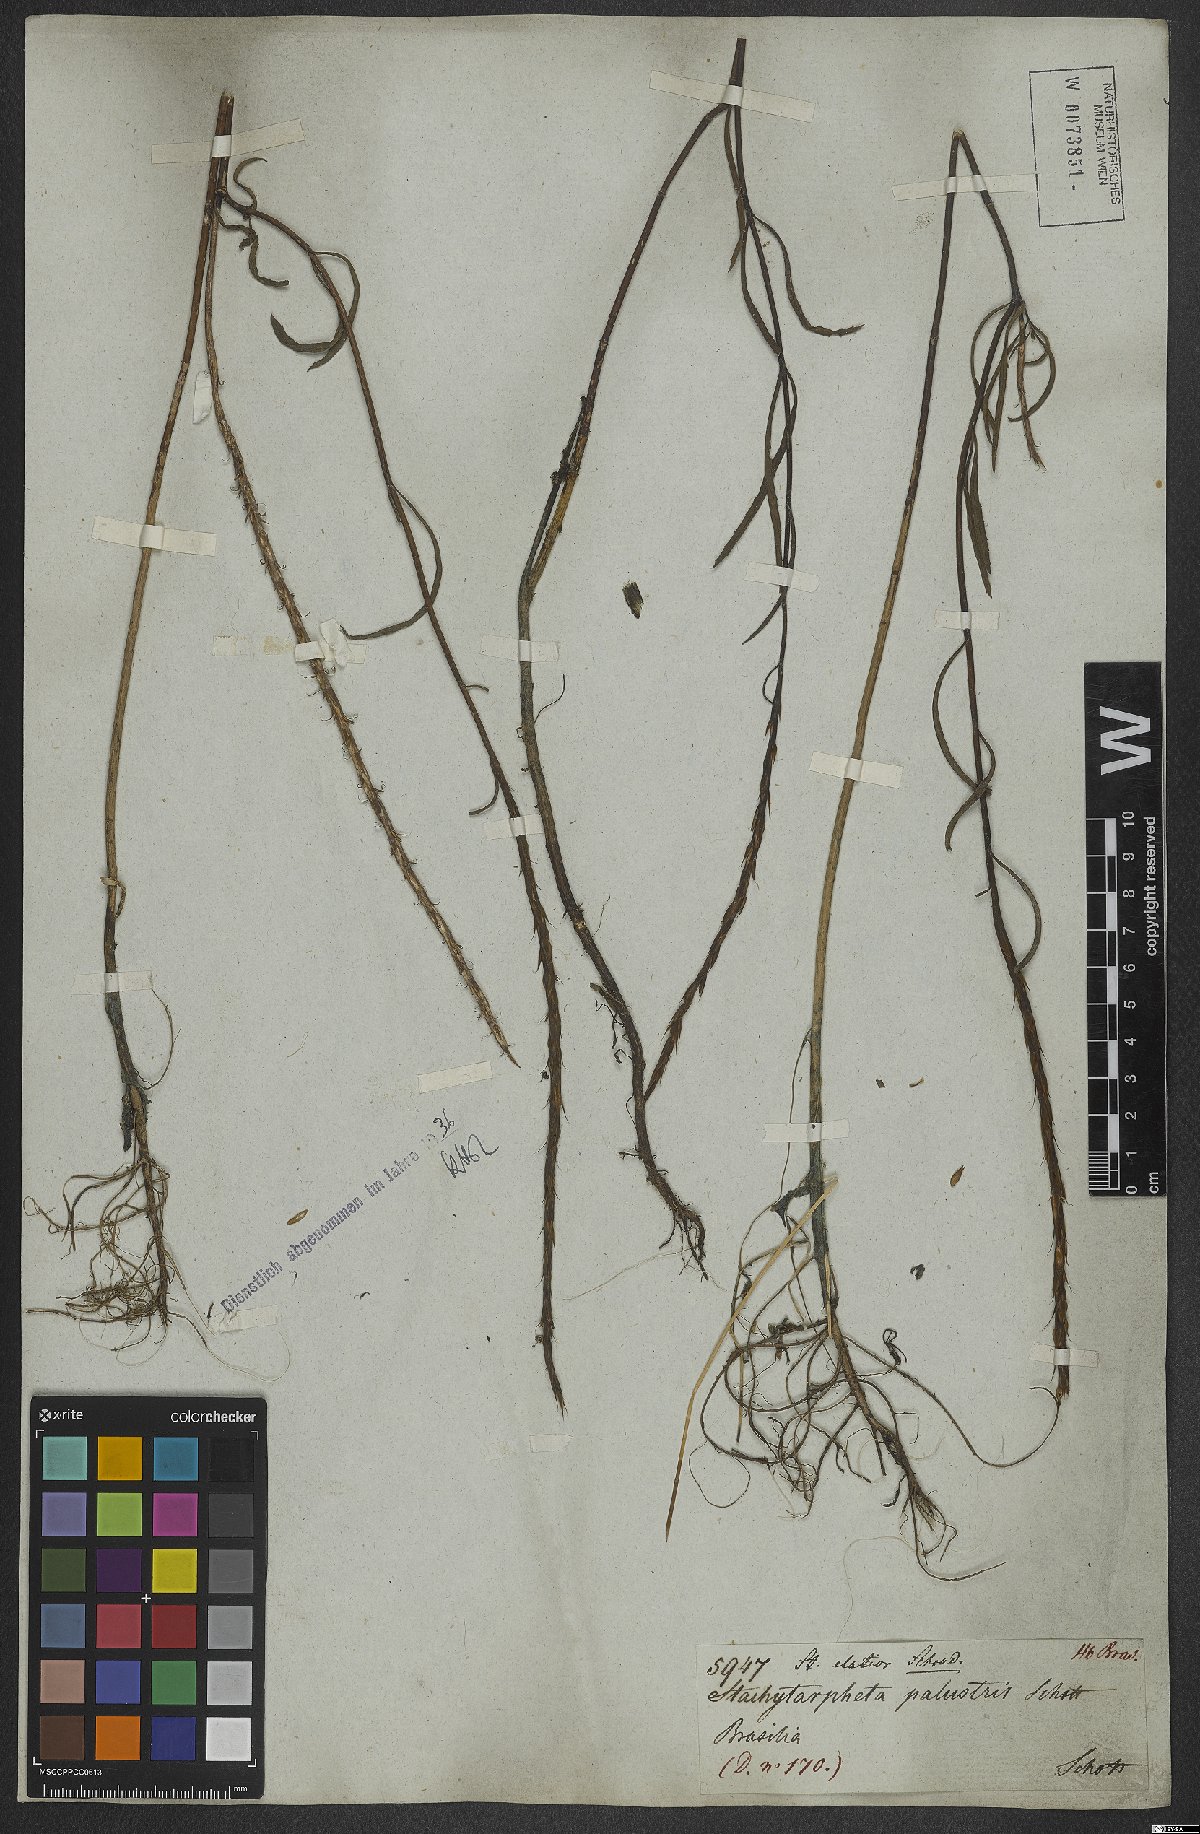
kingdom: Plantae
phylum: Tracheophyta
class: Magnoliopsida
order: Lamiales
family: Verbenaceae
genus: Stachytarpheta
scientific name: Stachytarpheta indica
